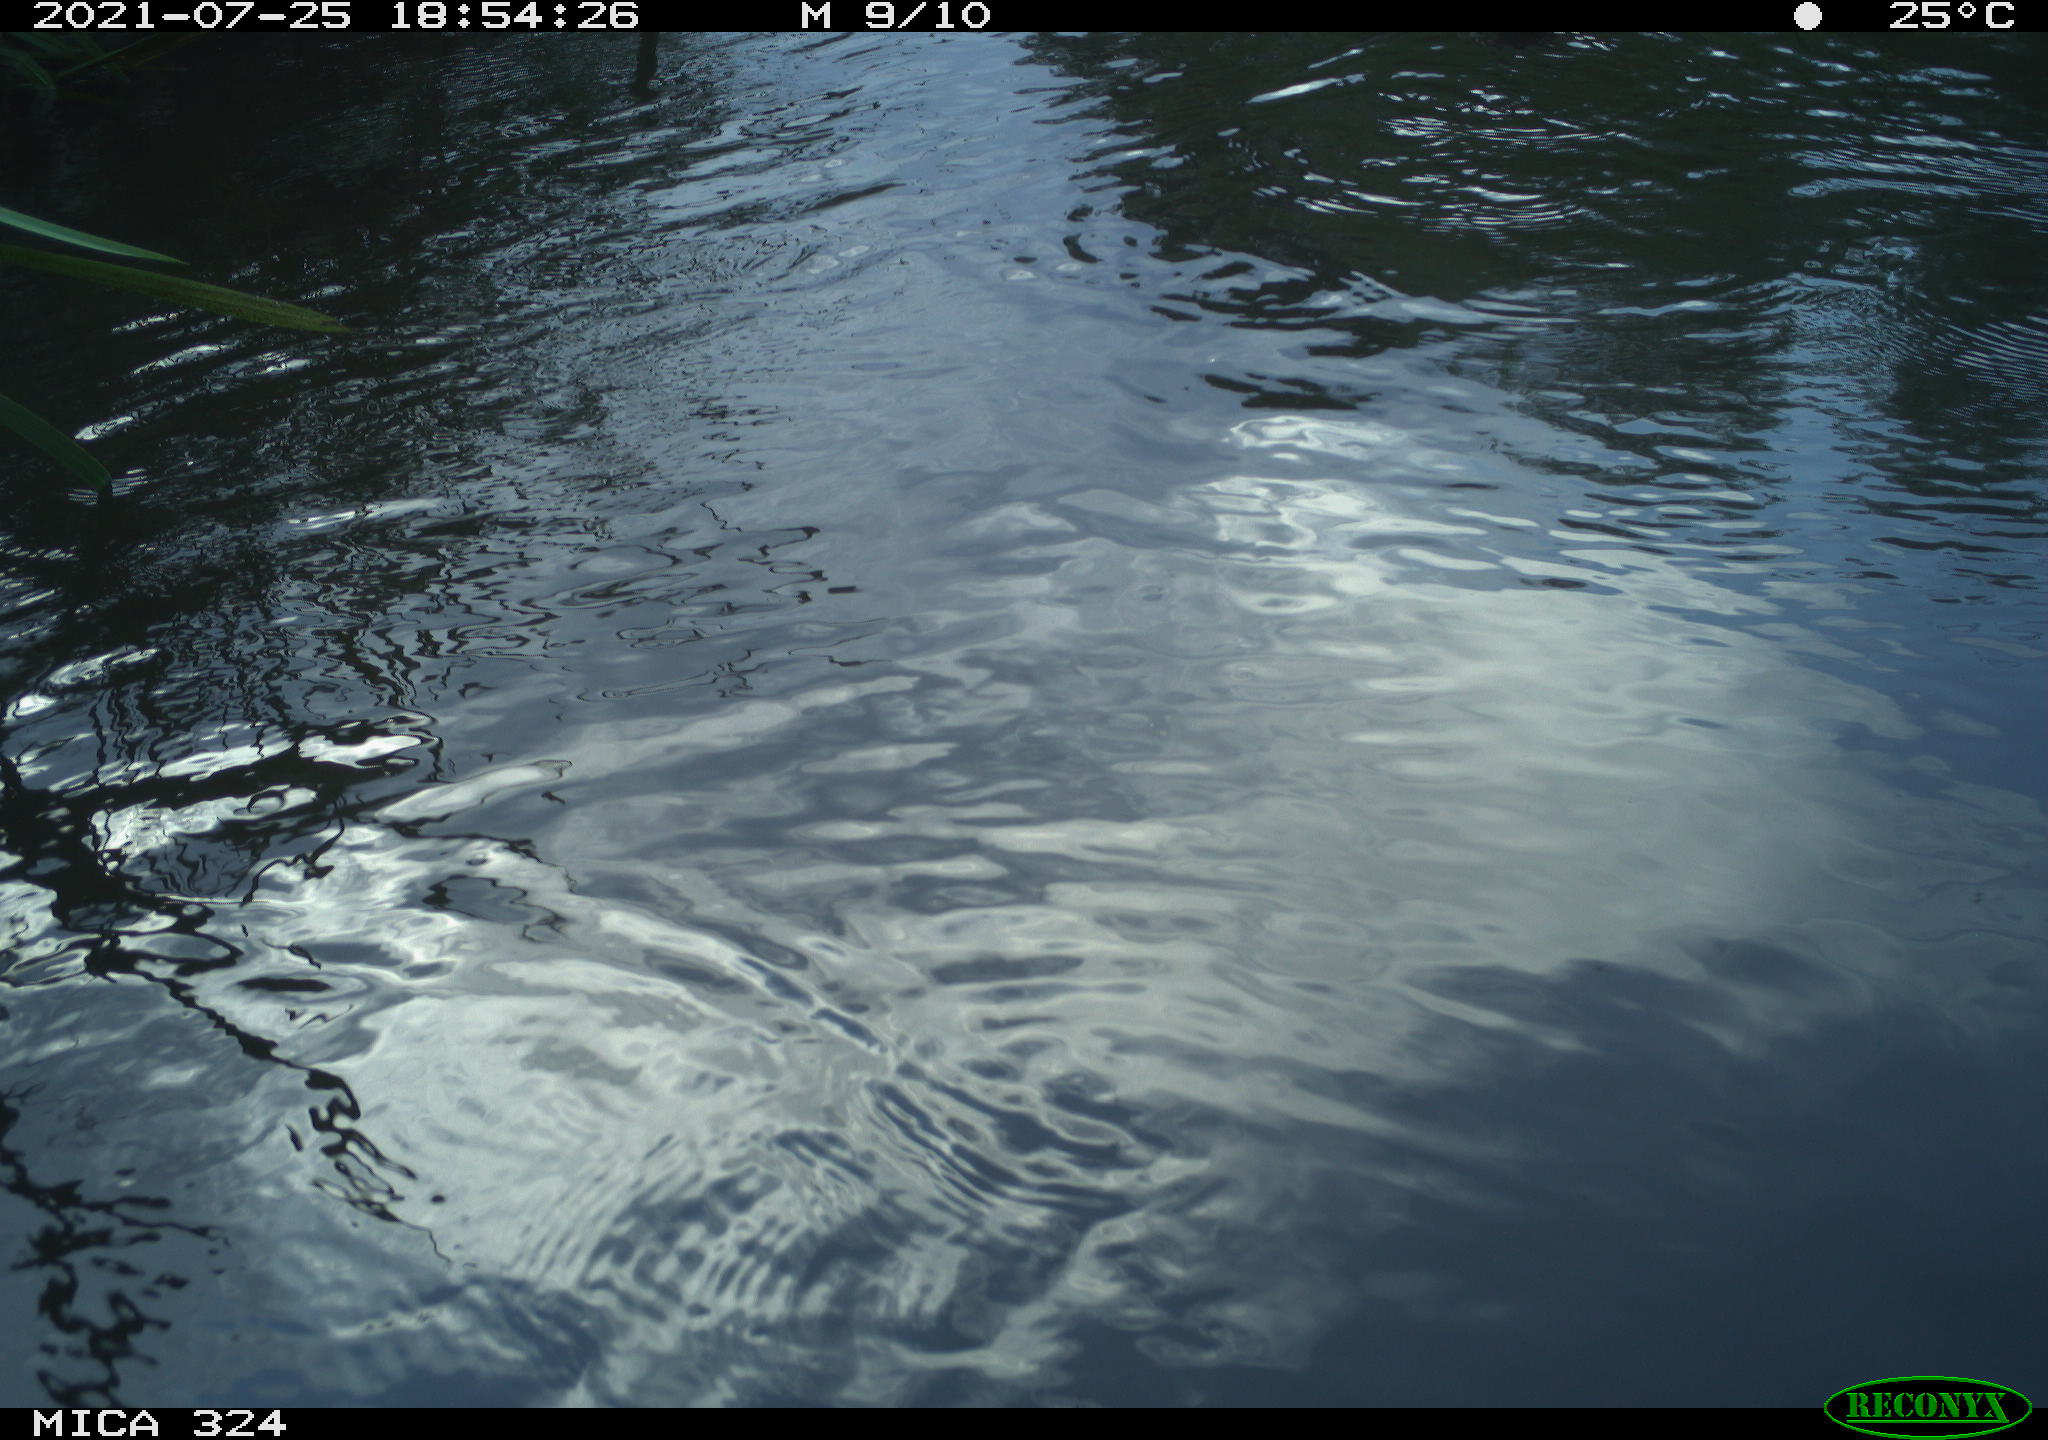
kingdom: Animalia
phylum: Chordata
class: Aves
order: Anseriformes
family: Anatidae
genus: Anas
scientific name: Anas platyrhynchos
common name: Mallard
